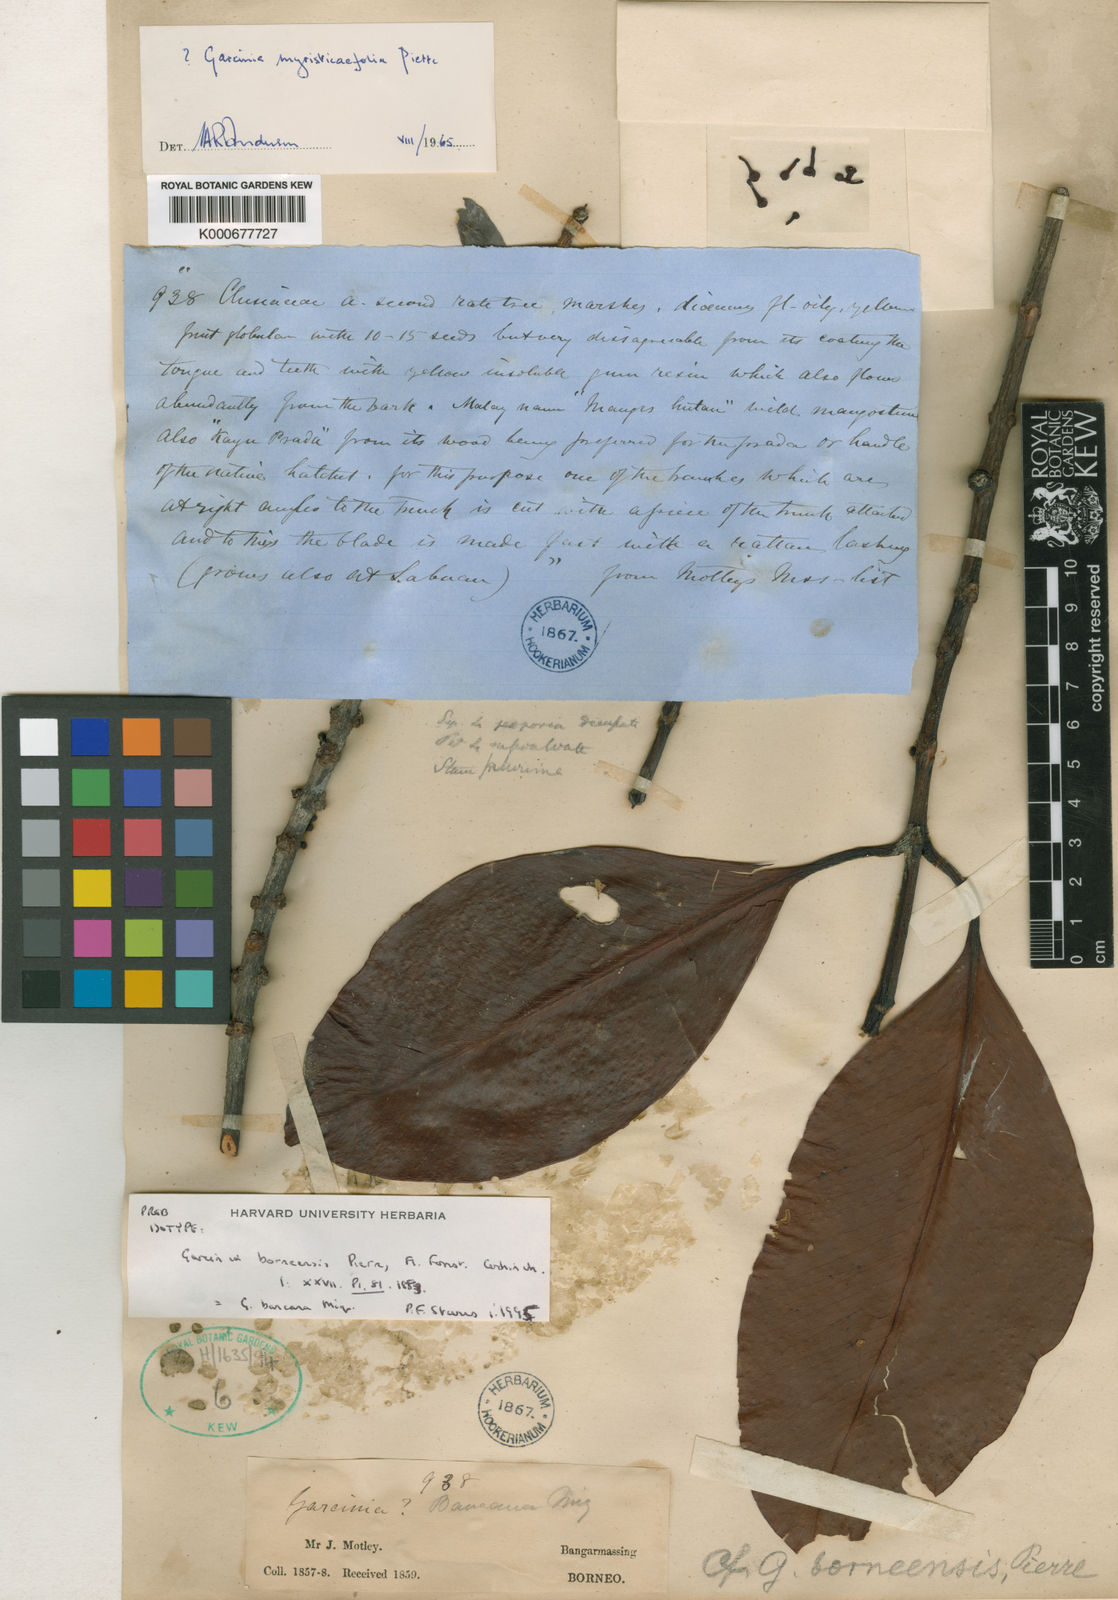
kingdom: Plantae
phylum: Tracheophyta
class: Magnoliopsida
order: Malpighiales
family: Clusiaceae
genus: Garcinia
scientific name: Garcinia borneensis
